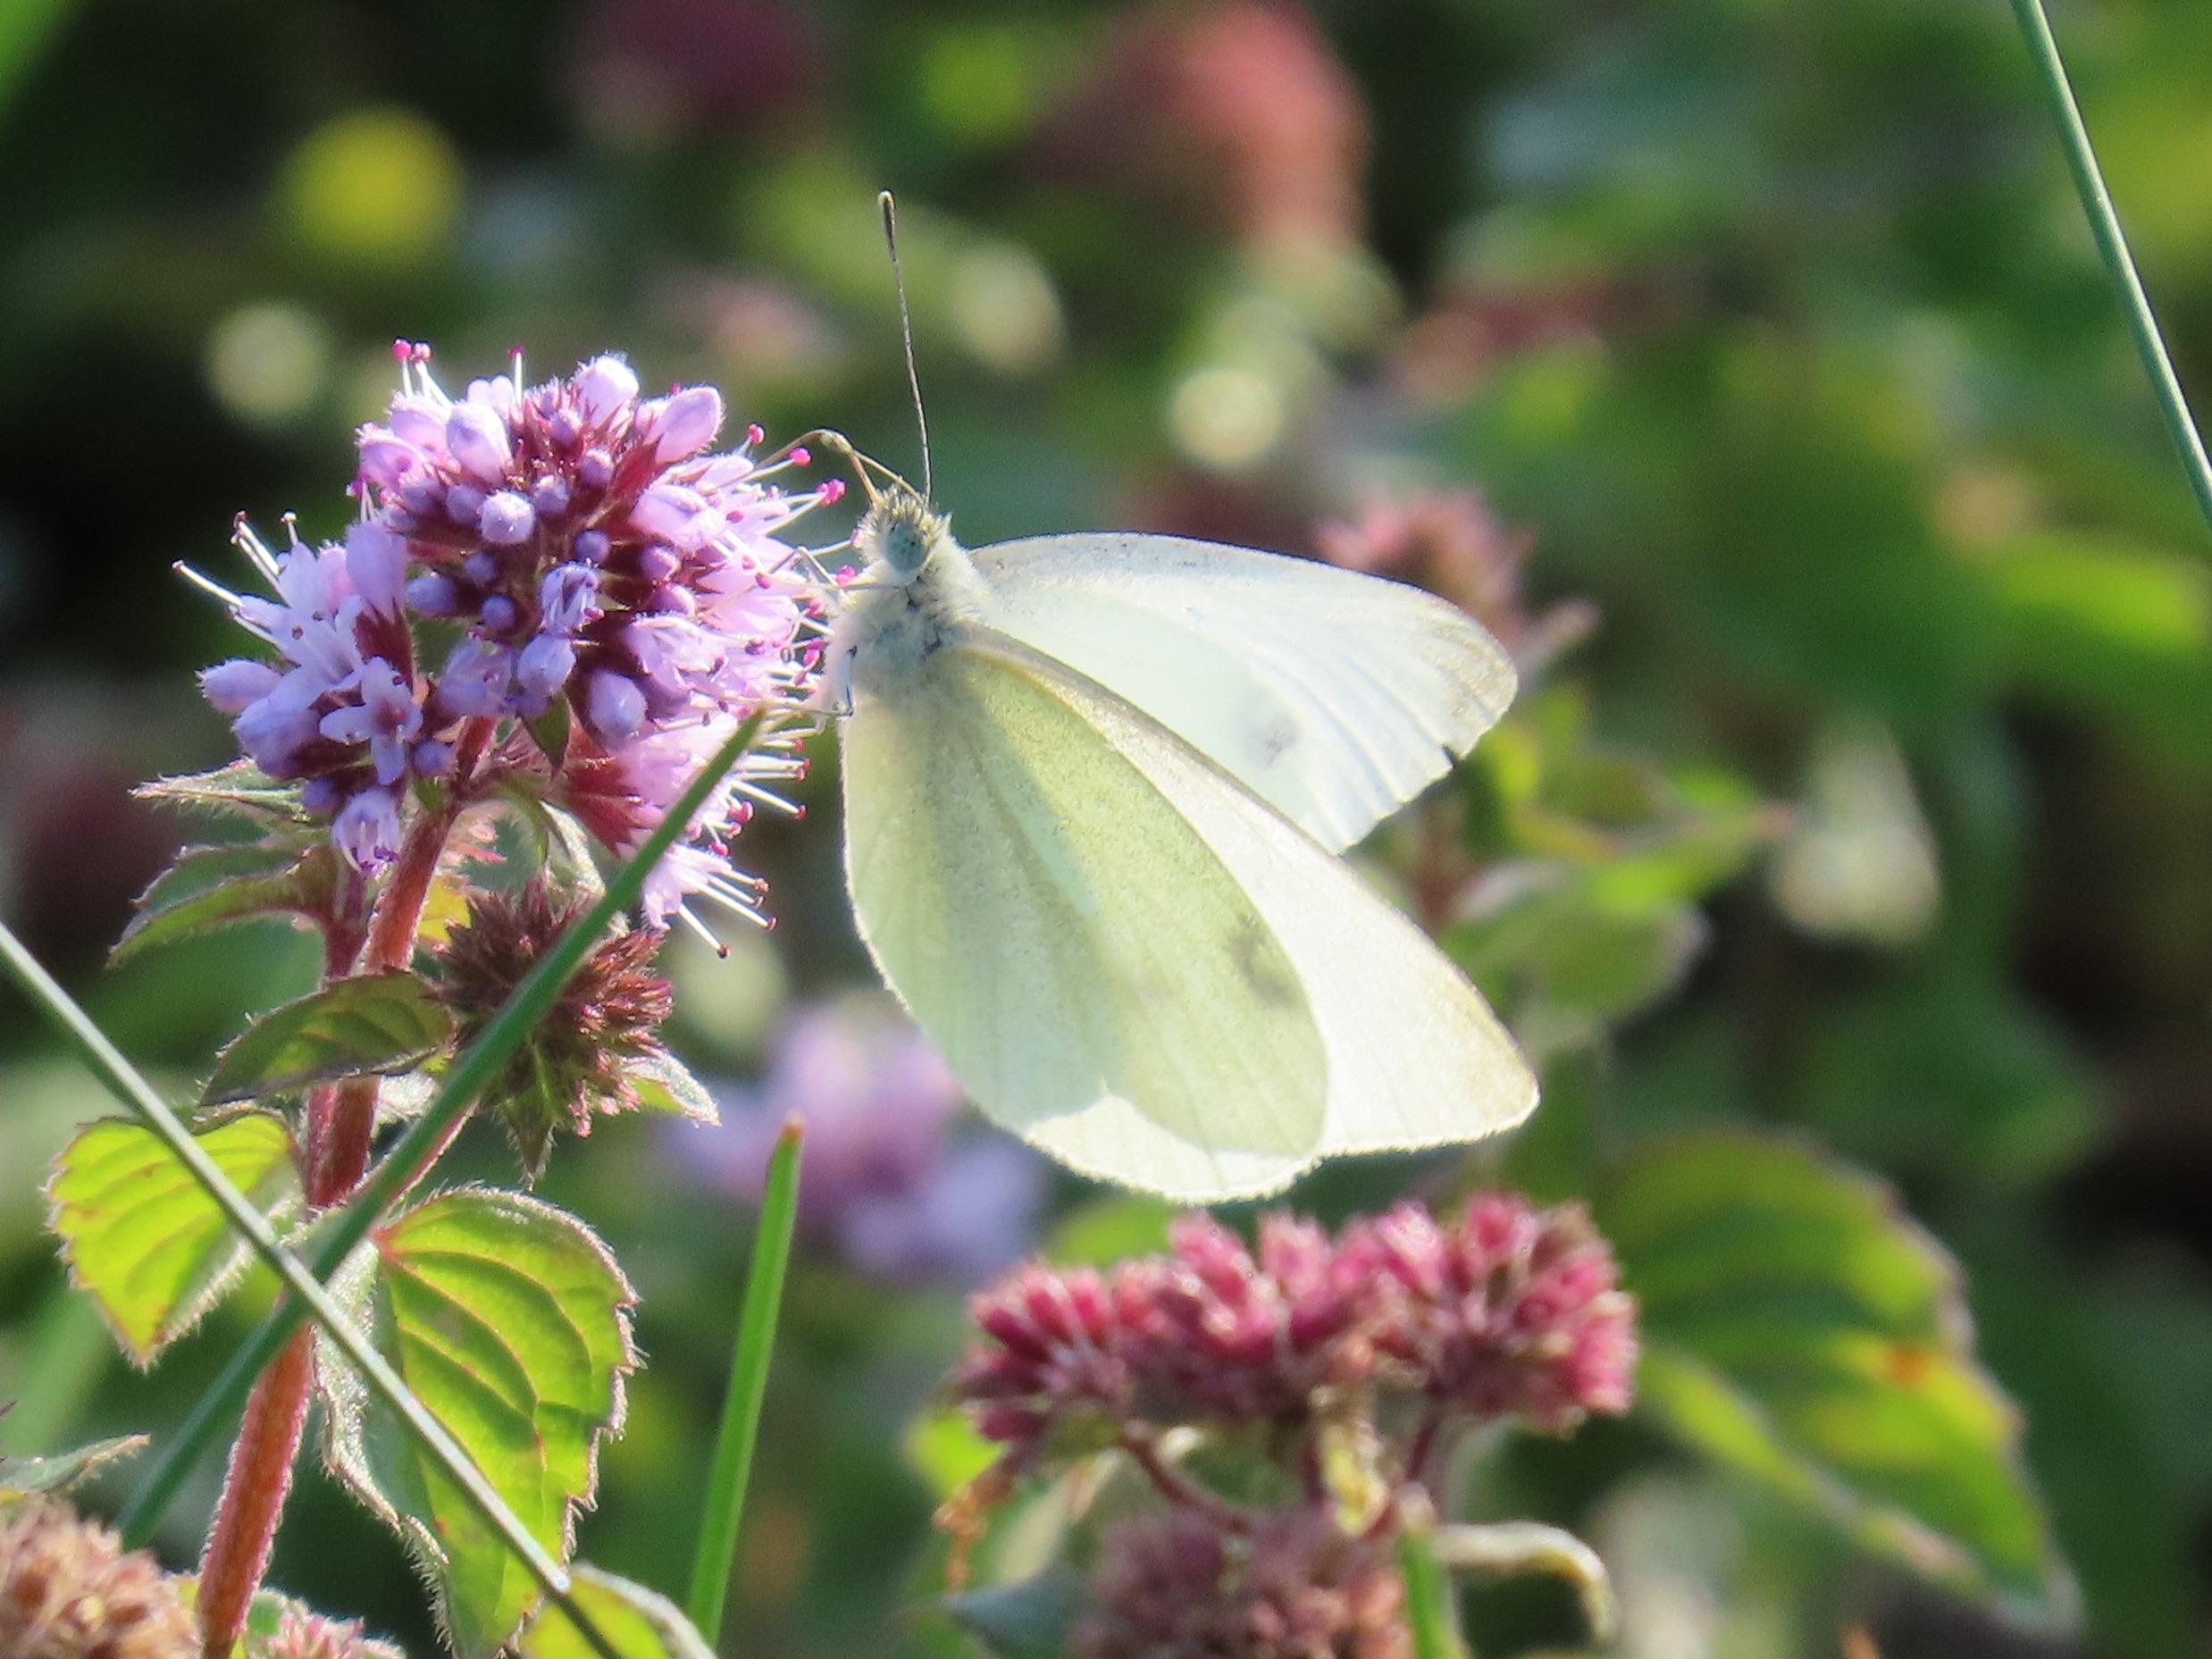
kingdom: Animalia
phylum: Arthropoda
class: Insecta
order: Lepidoptera
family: Pieridae
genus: Pieris
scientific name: Pieris rapae
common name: Lille kålsommerfugl
